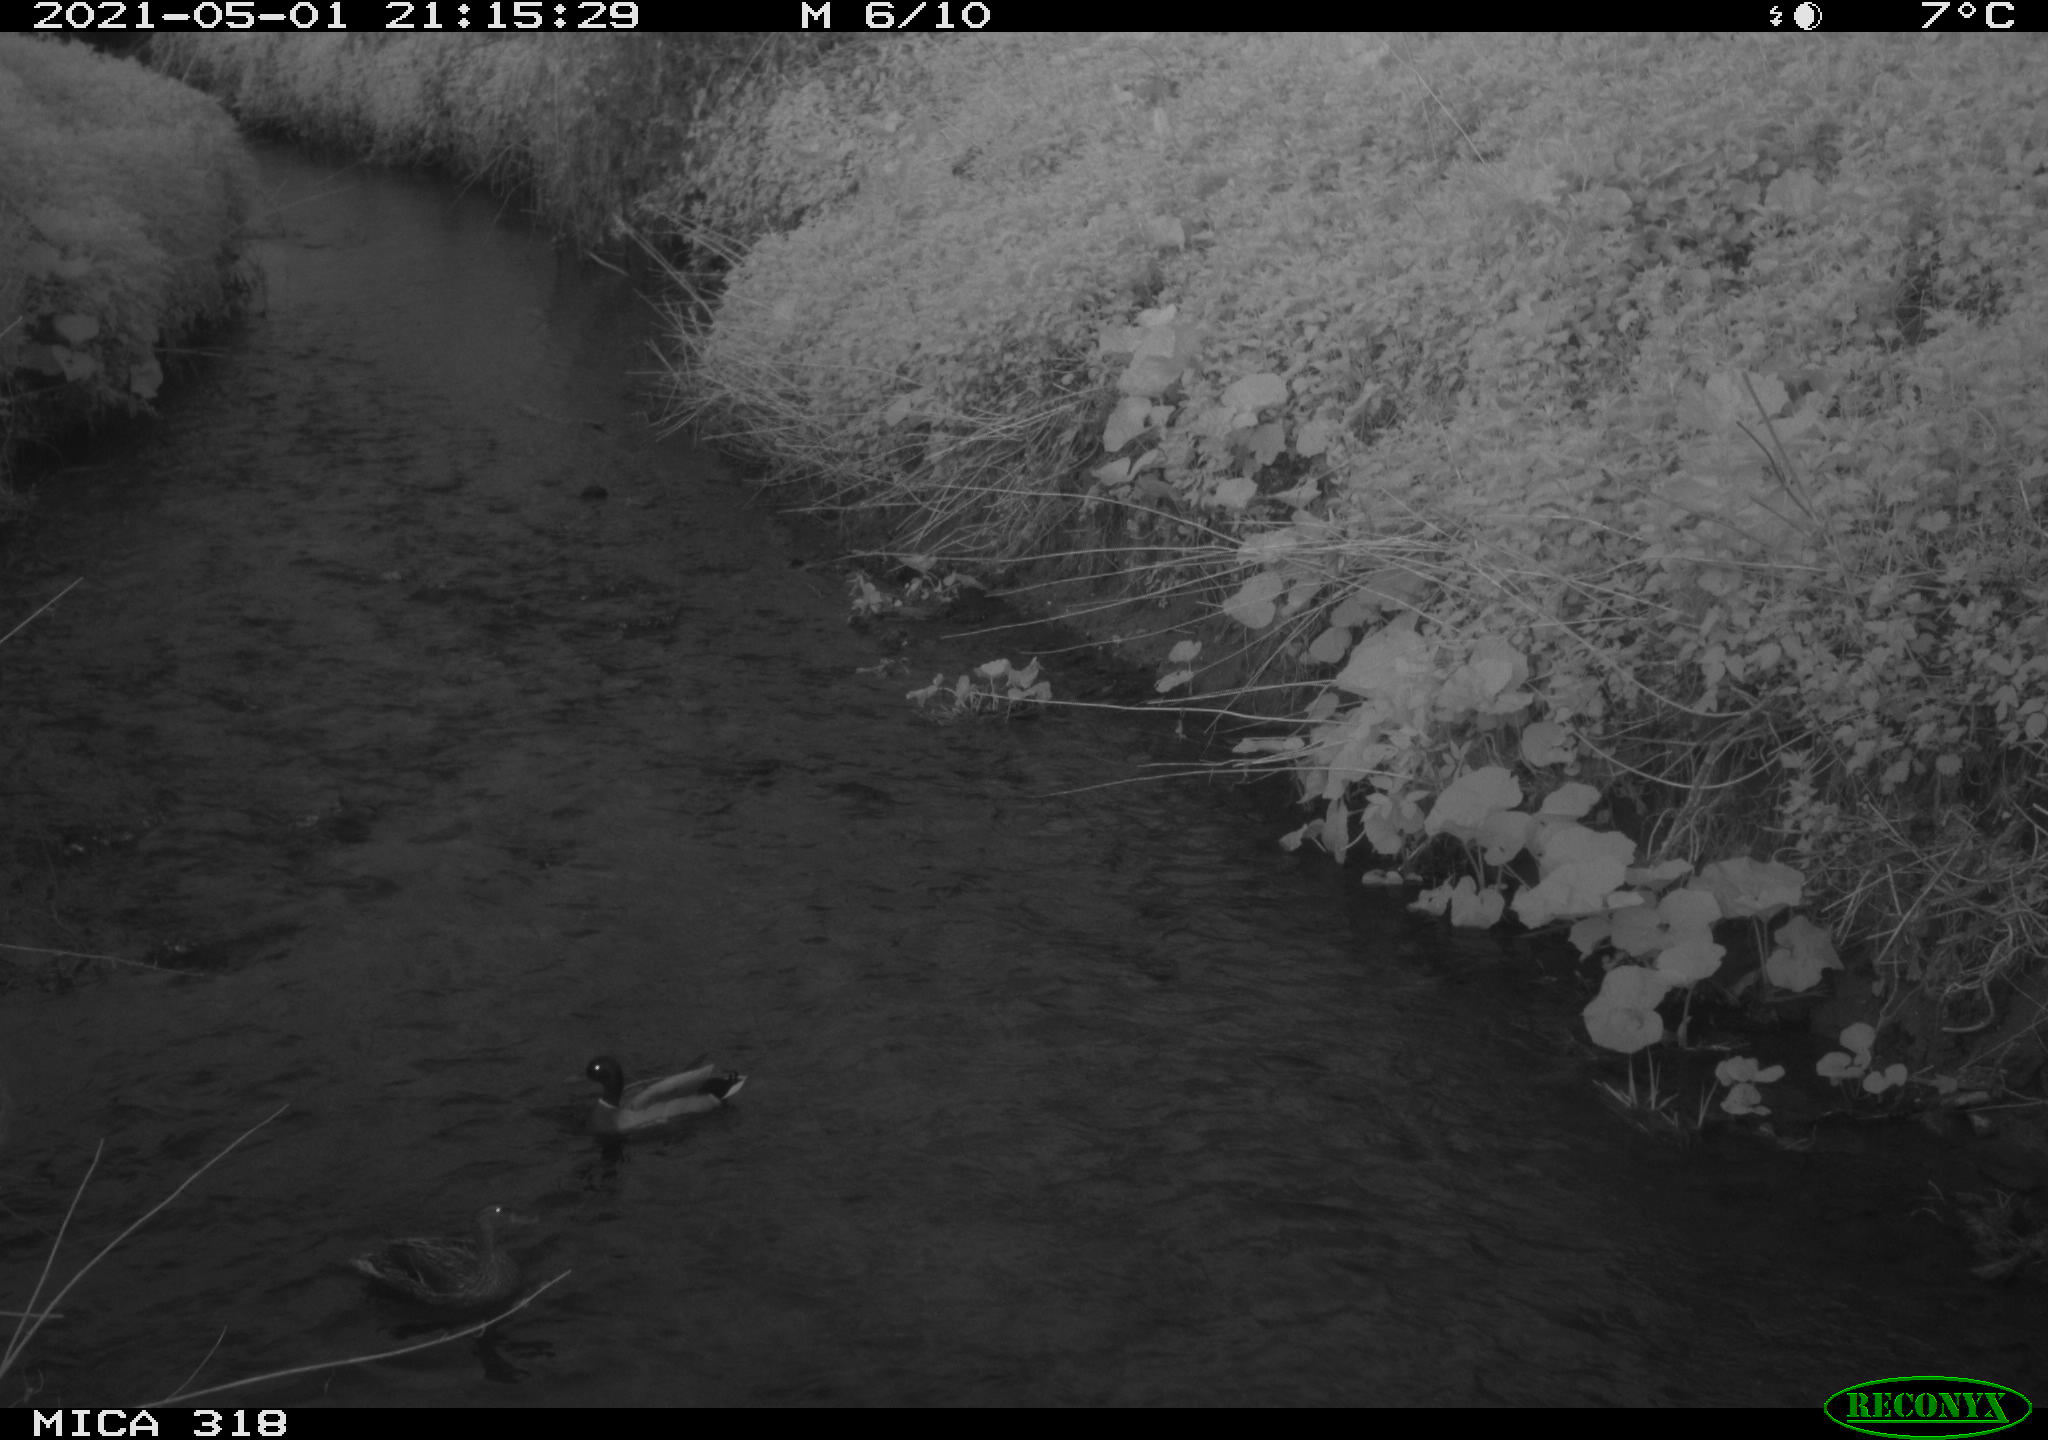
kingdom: Animalia
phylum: Chordata
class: Aves
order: Anseriformes
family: Anatidae
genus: Anas
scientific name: Anas platyrhynchos
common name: Mallard
